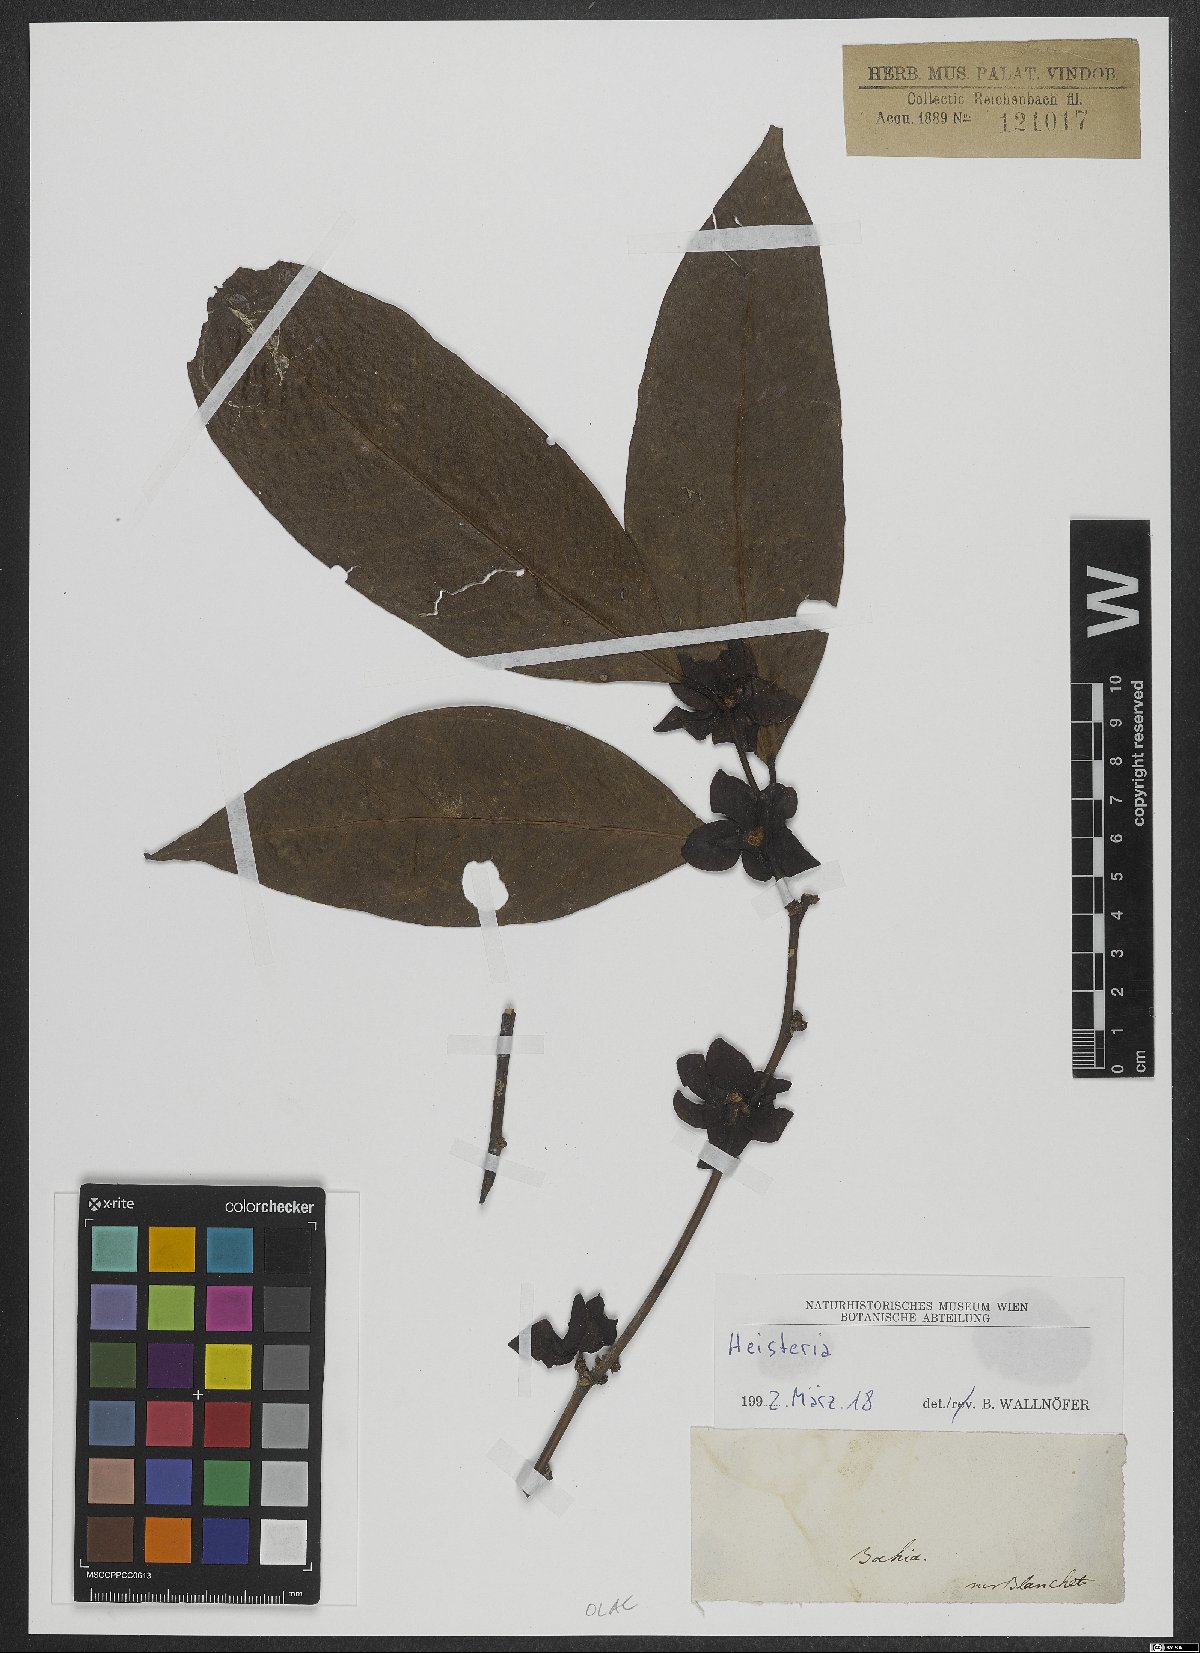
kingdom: Plantae
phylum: Tracheophyta
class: Magnoliopsida
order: Santalales
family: Erythropalaceae
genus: Heisteria
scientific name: Heisteria
